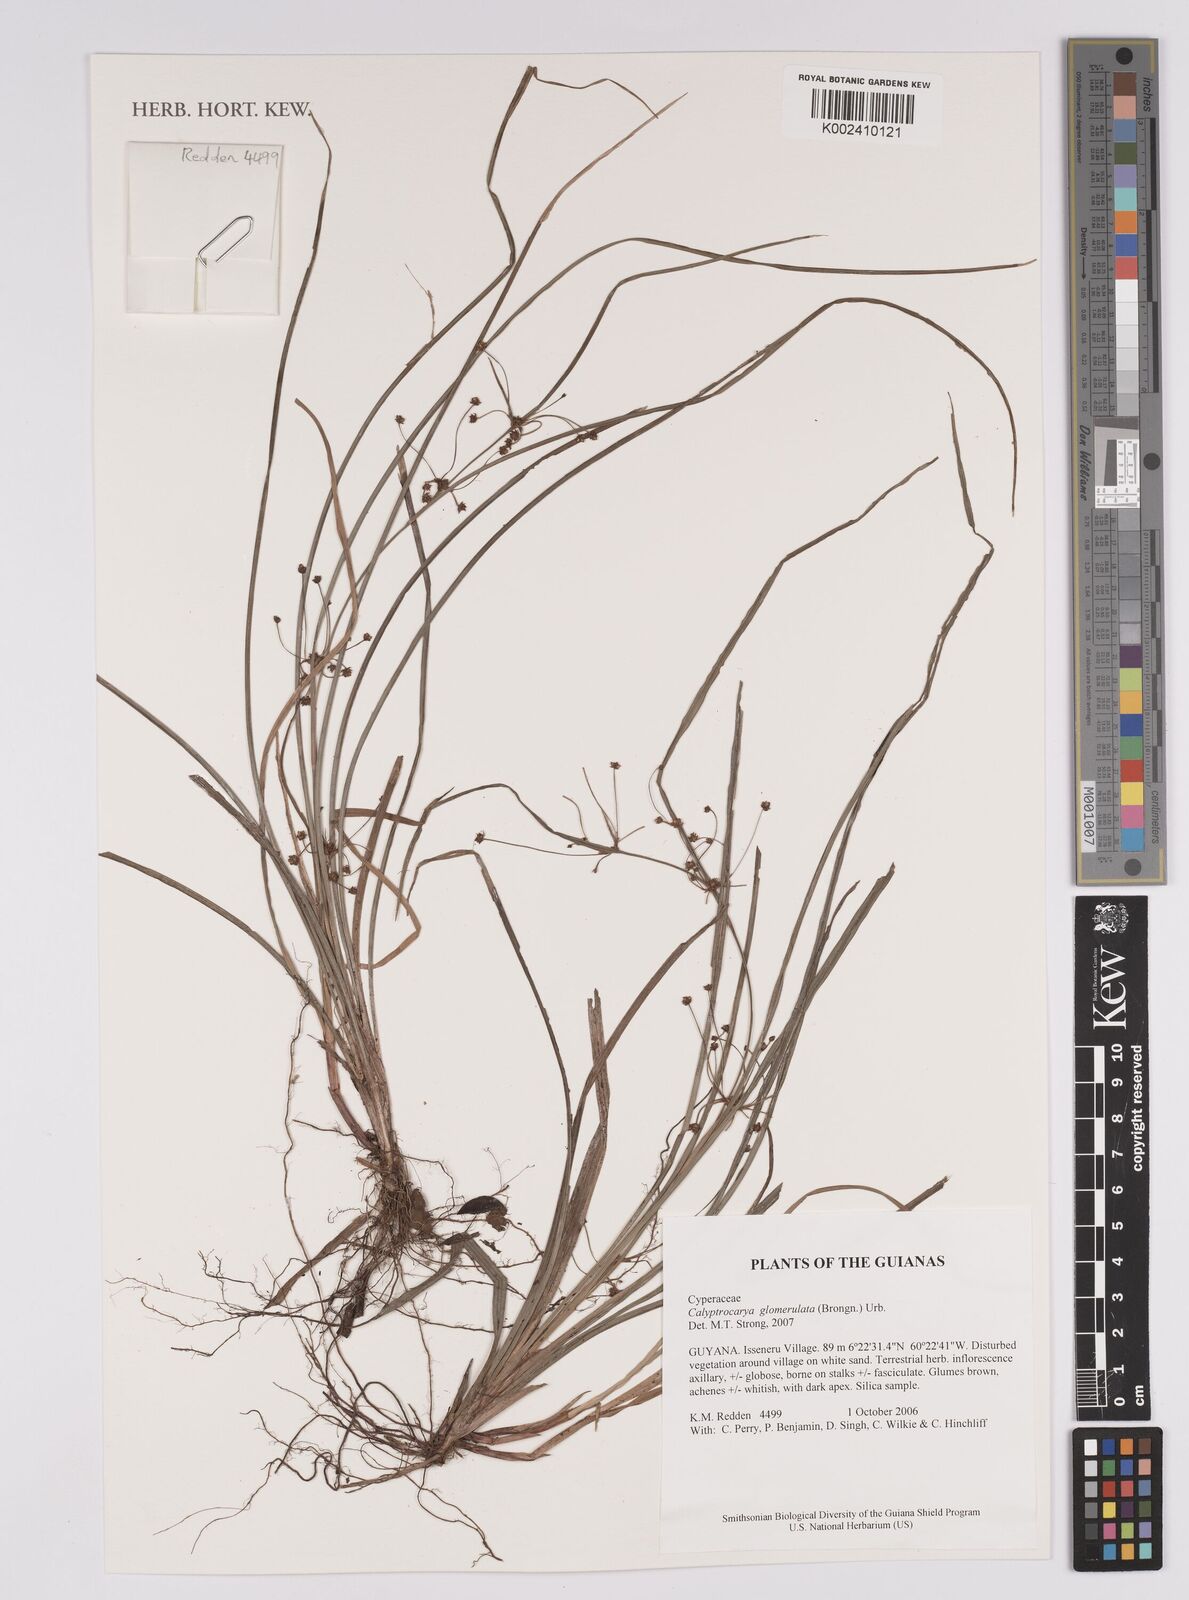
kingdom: Plantae
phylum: Tracheophyta
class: Liliopsida
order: Poales
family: Cyperaceae
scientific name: Cyperaceae
